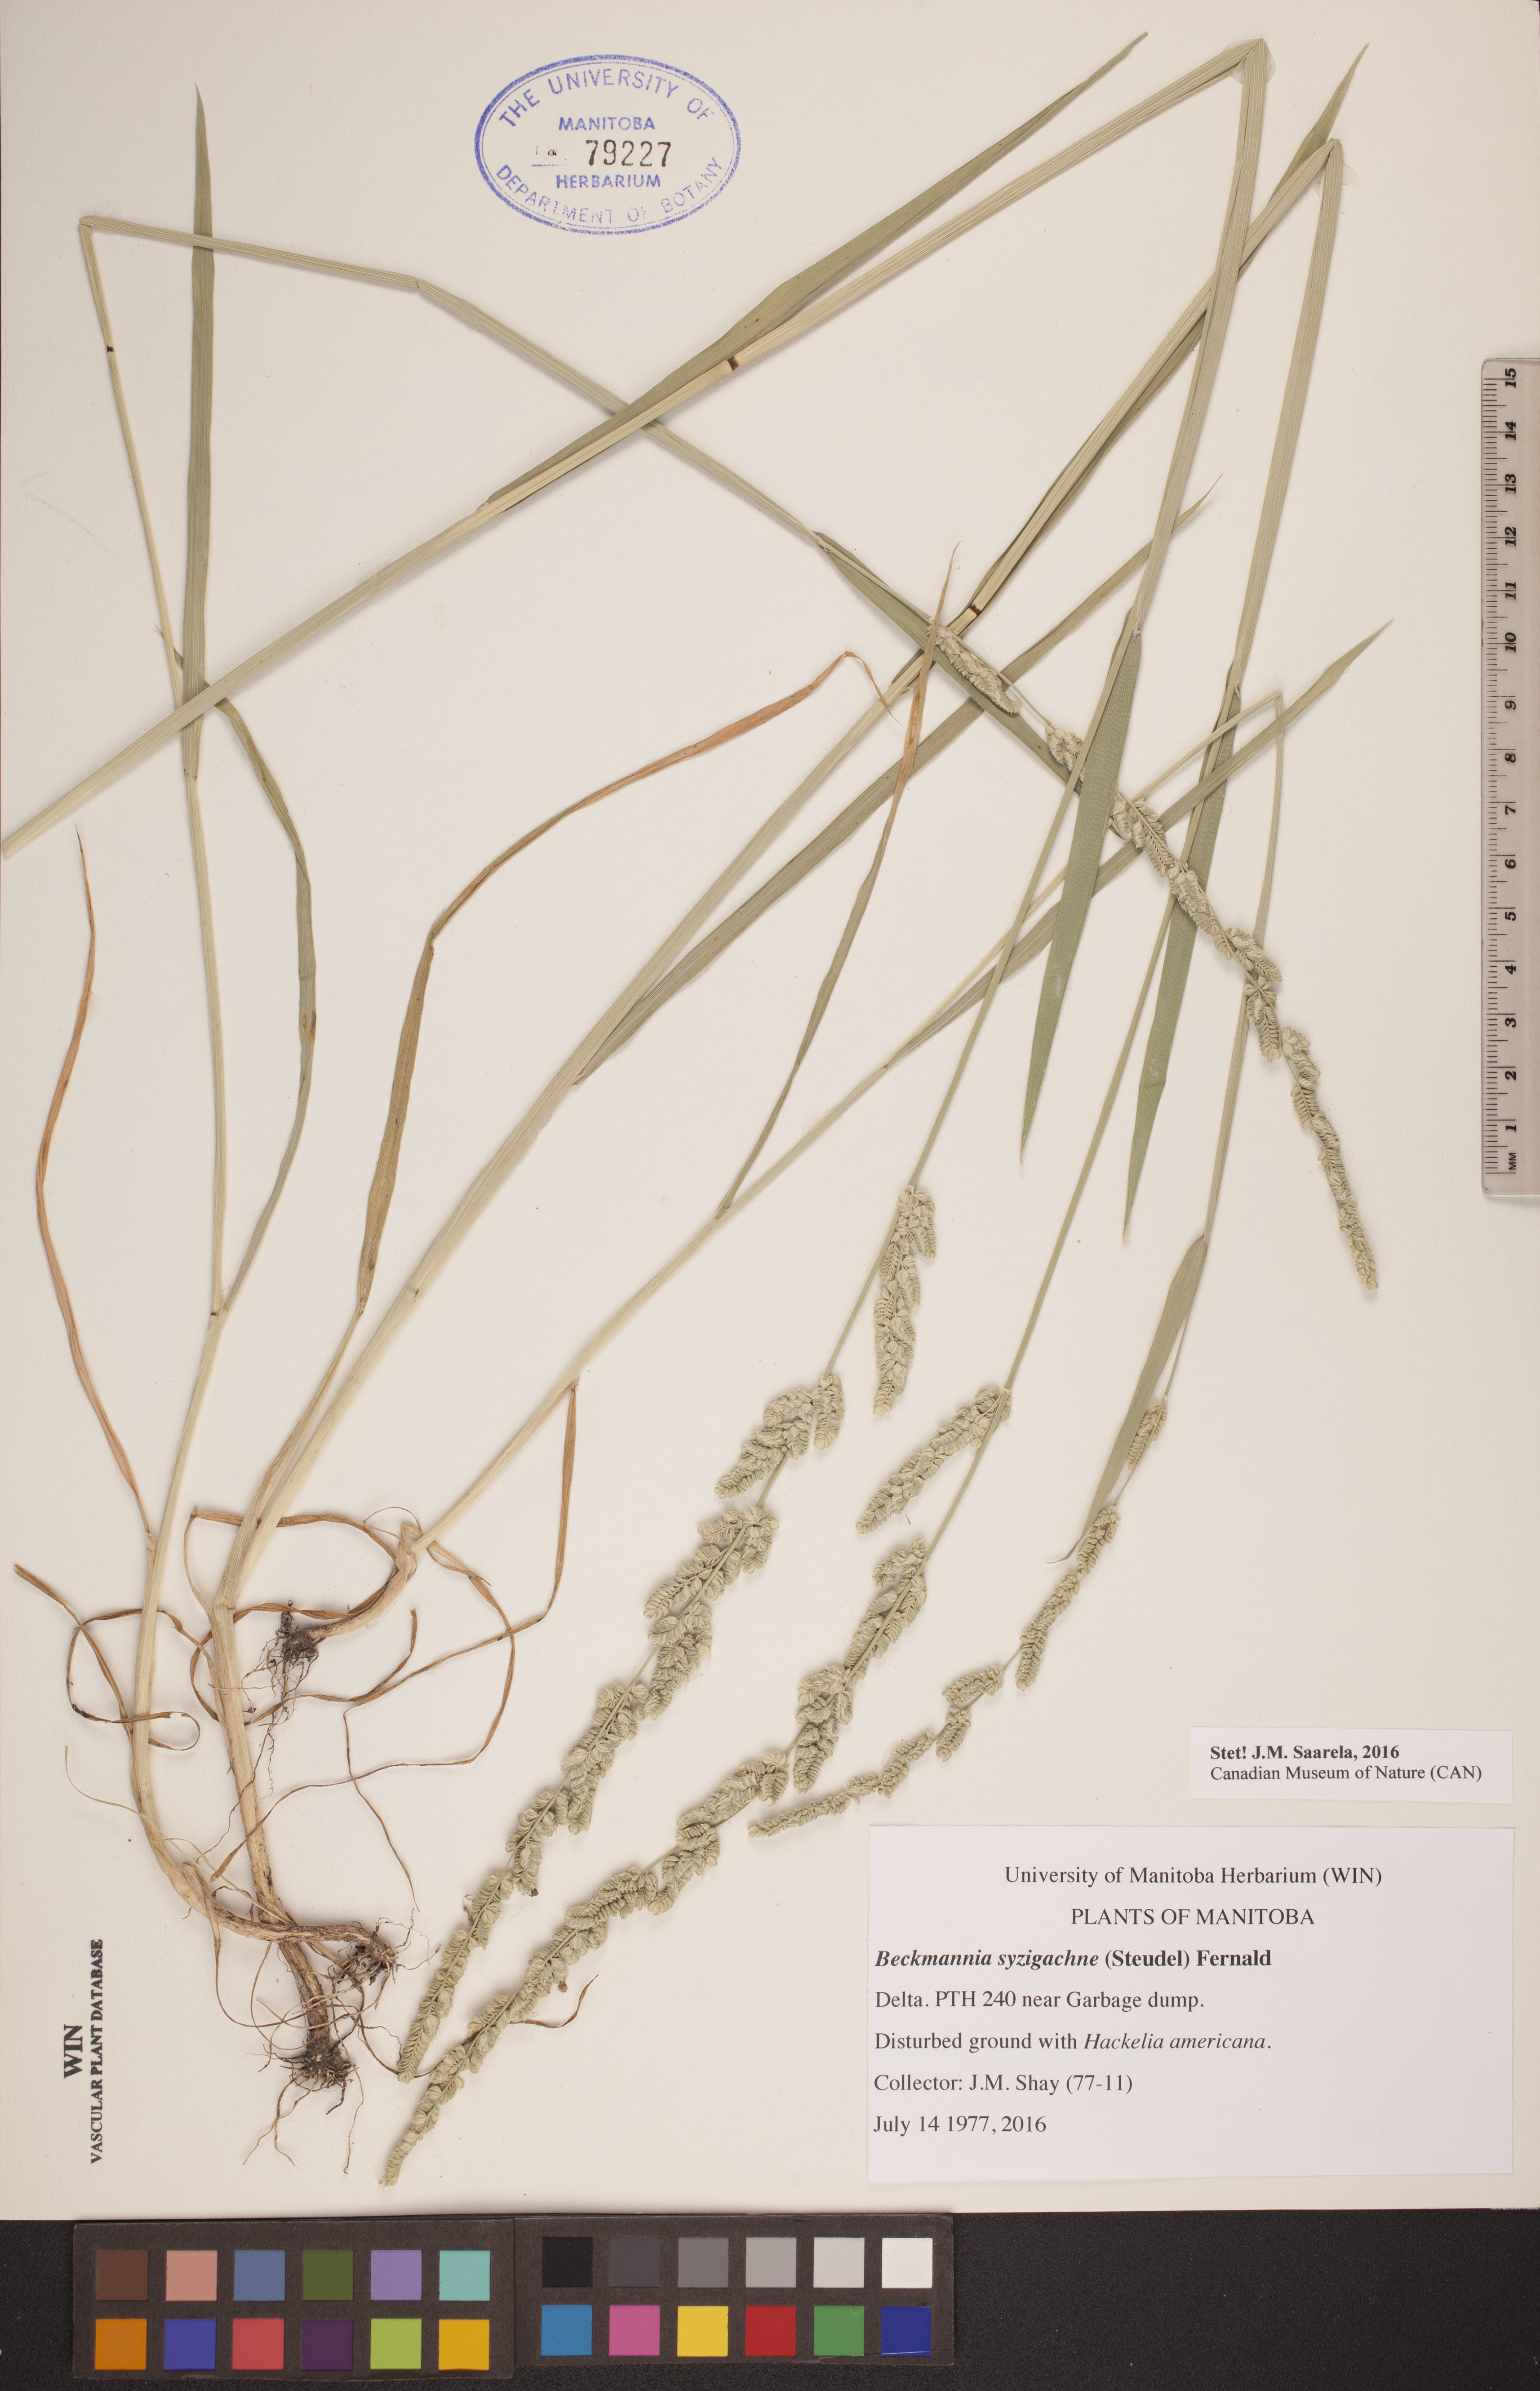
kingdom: Plantae
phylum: Tracheophyta
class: Liliopsida
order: Poales
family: Poaceae
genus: Beckmannia
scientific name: Beckmannia syzigachne
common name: American slough-grass
